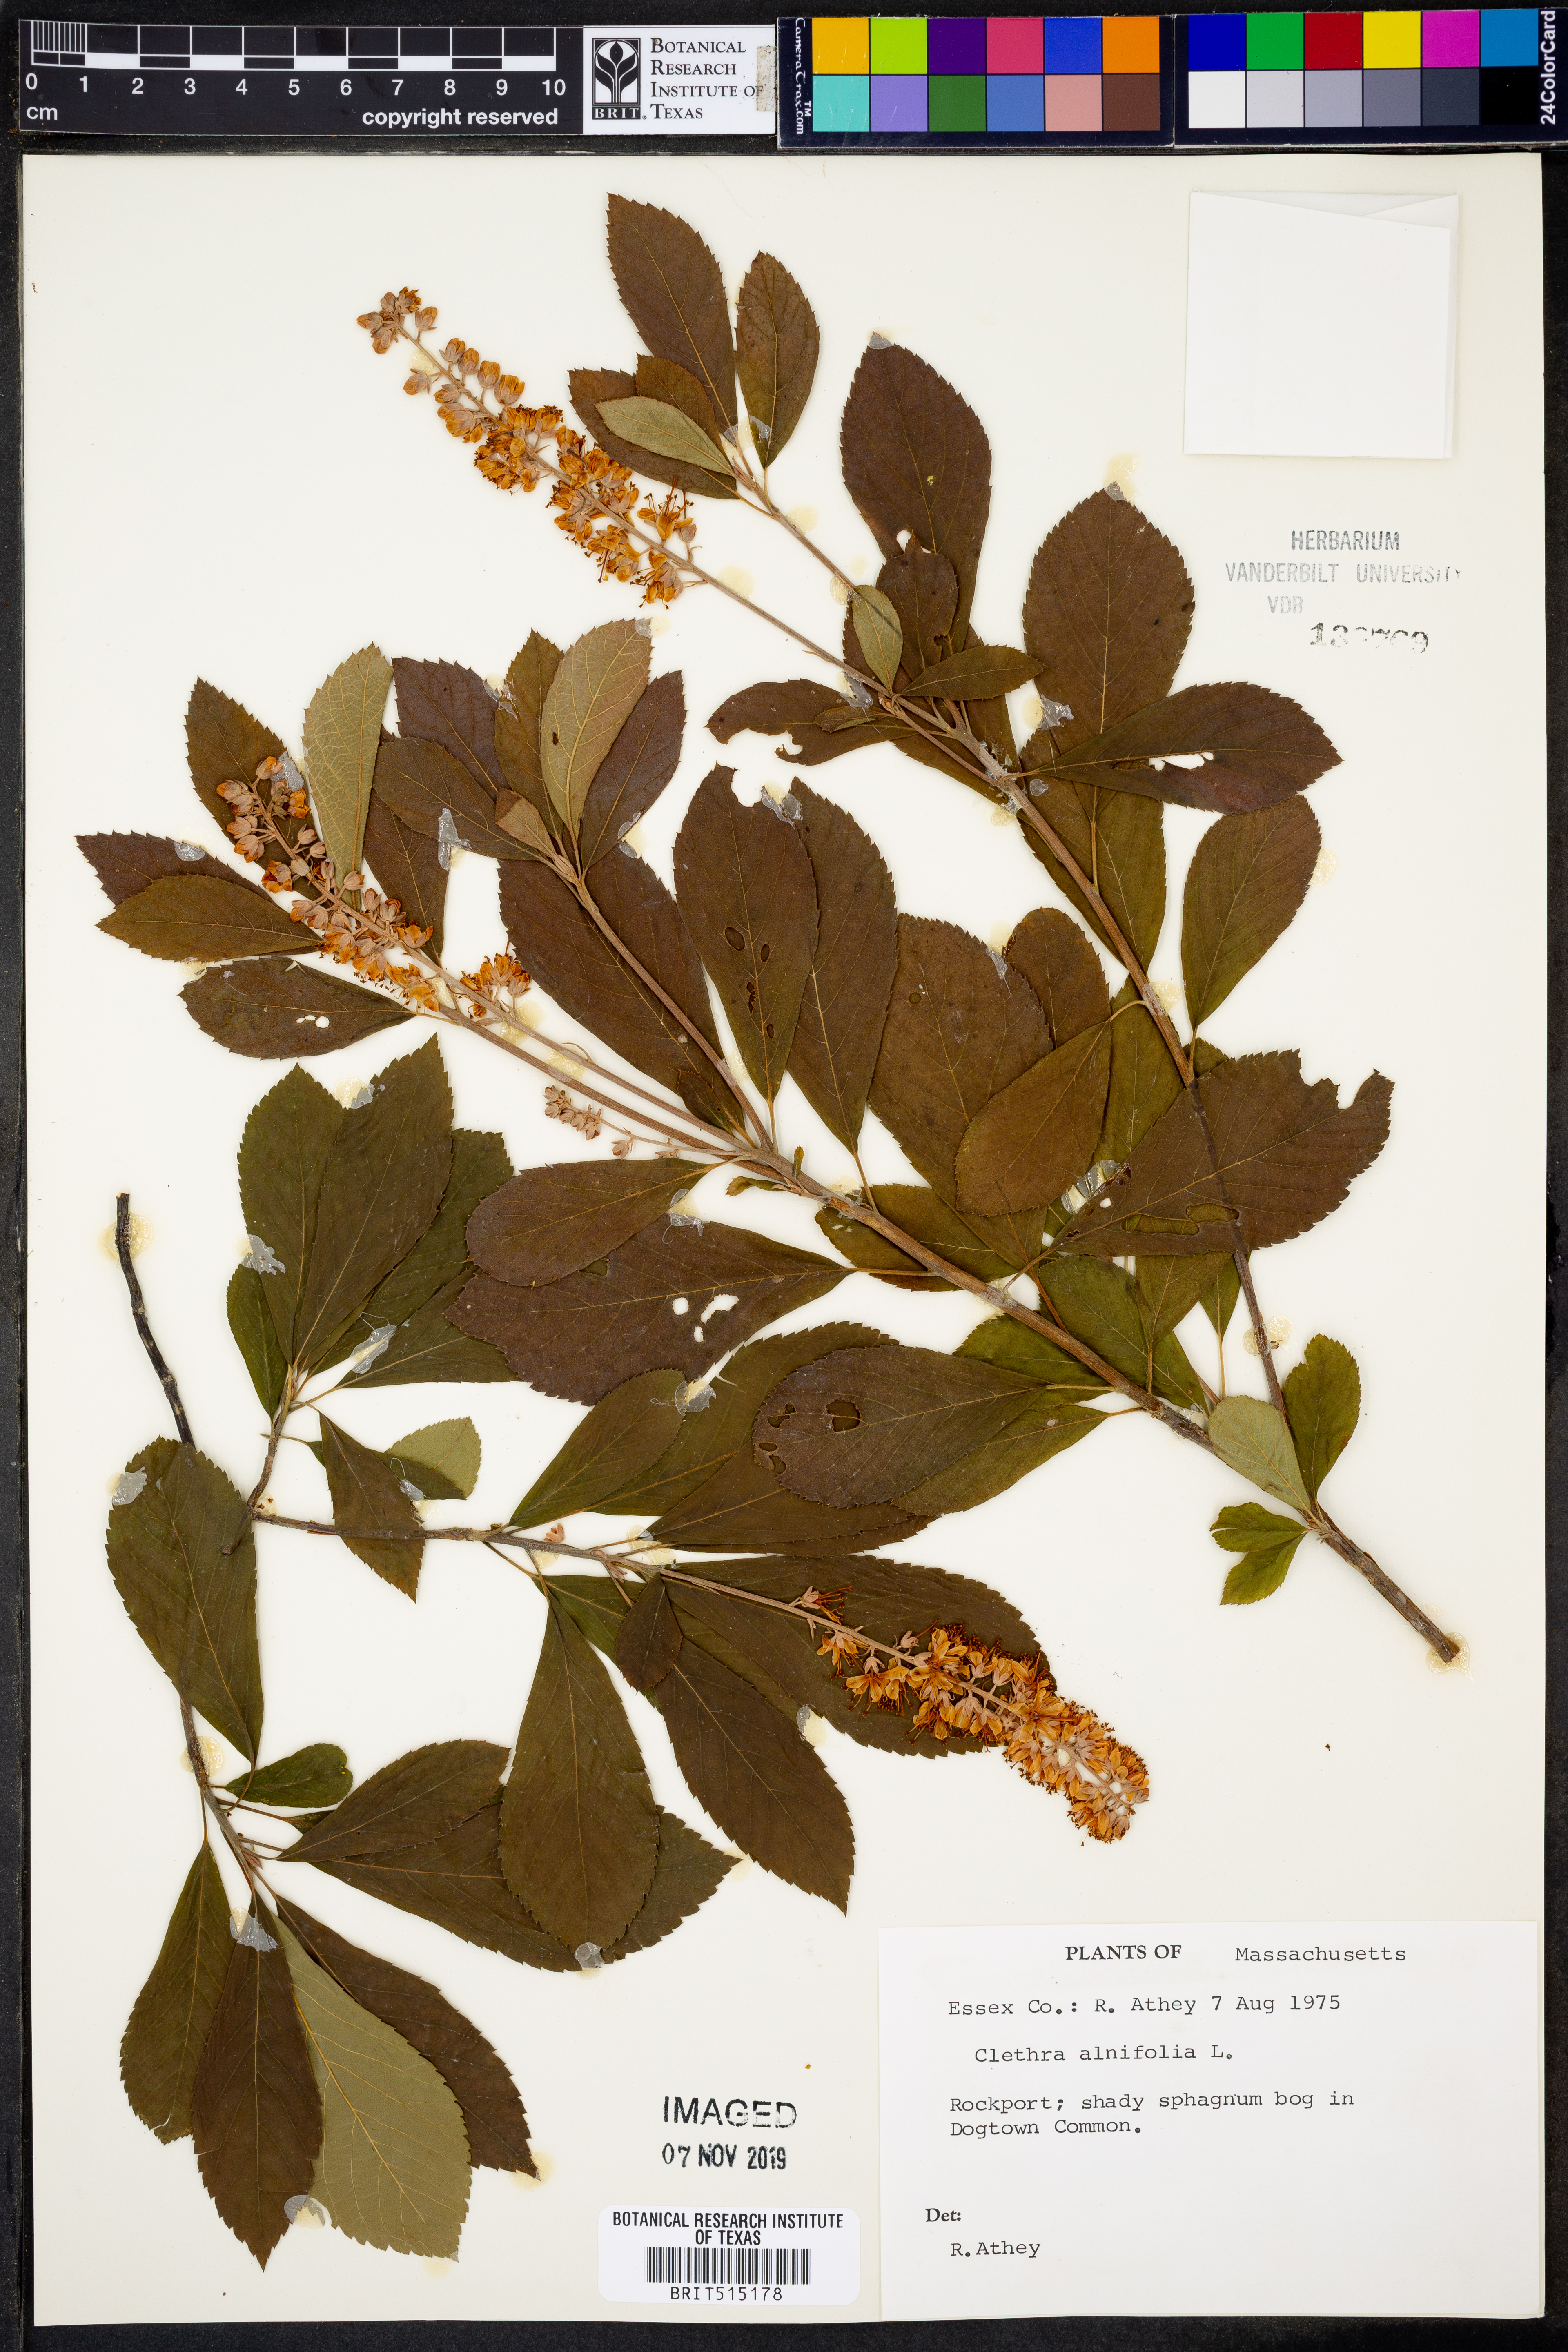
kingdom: Plantae
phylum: Tracheophyta
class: Magnoliopsida
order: Ericales
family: Clethraceae
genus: Clethra
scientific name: Clethra alnifolia
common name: Sweet pepperbush
